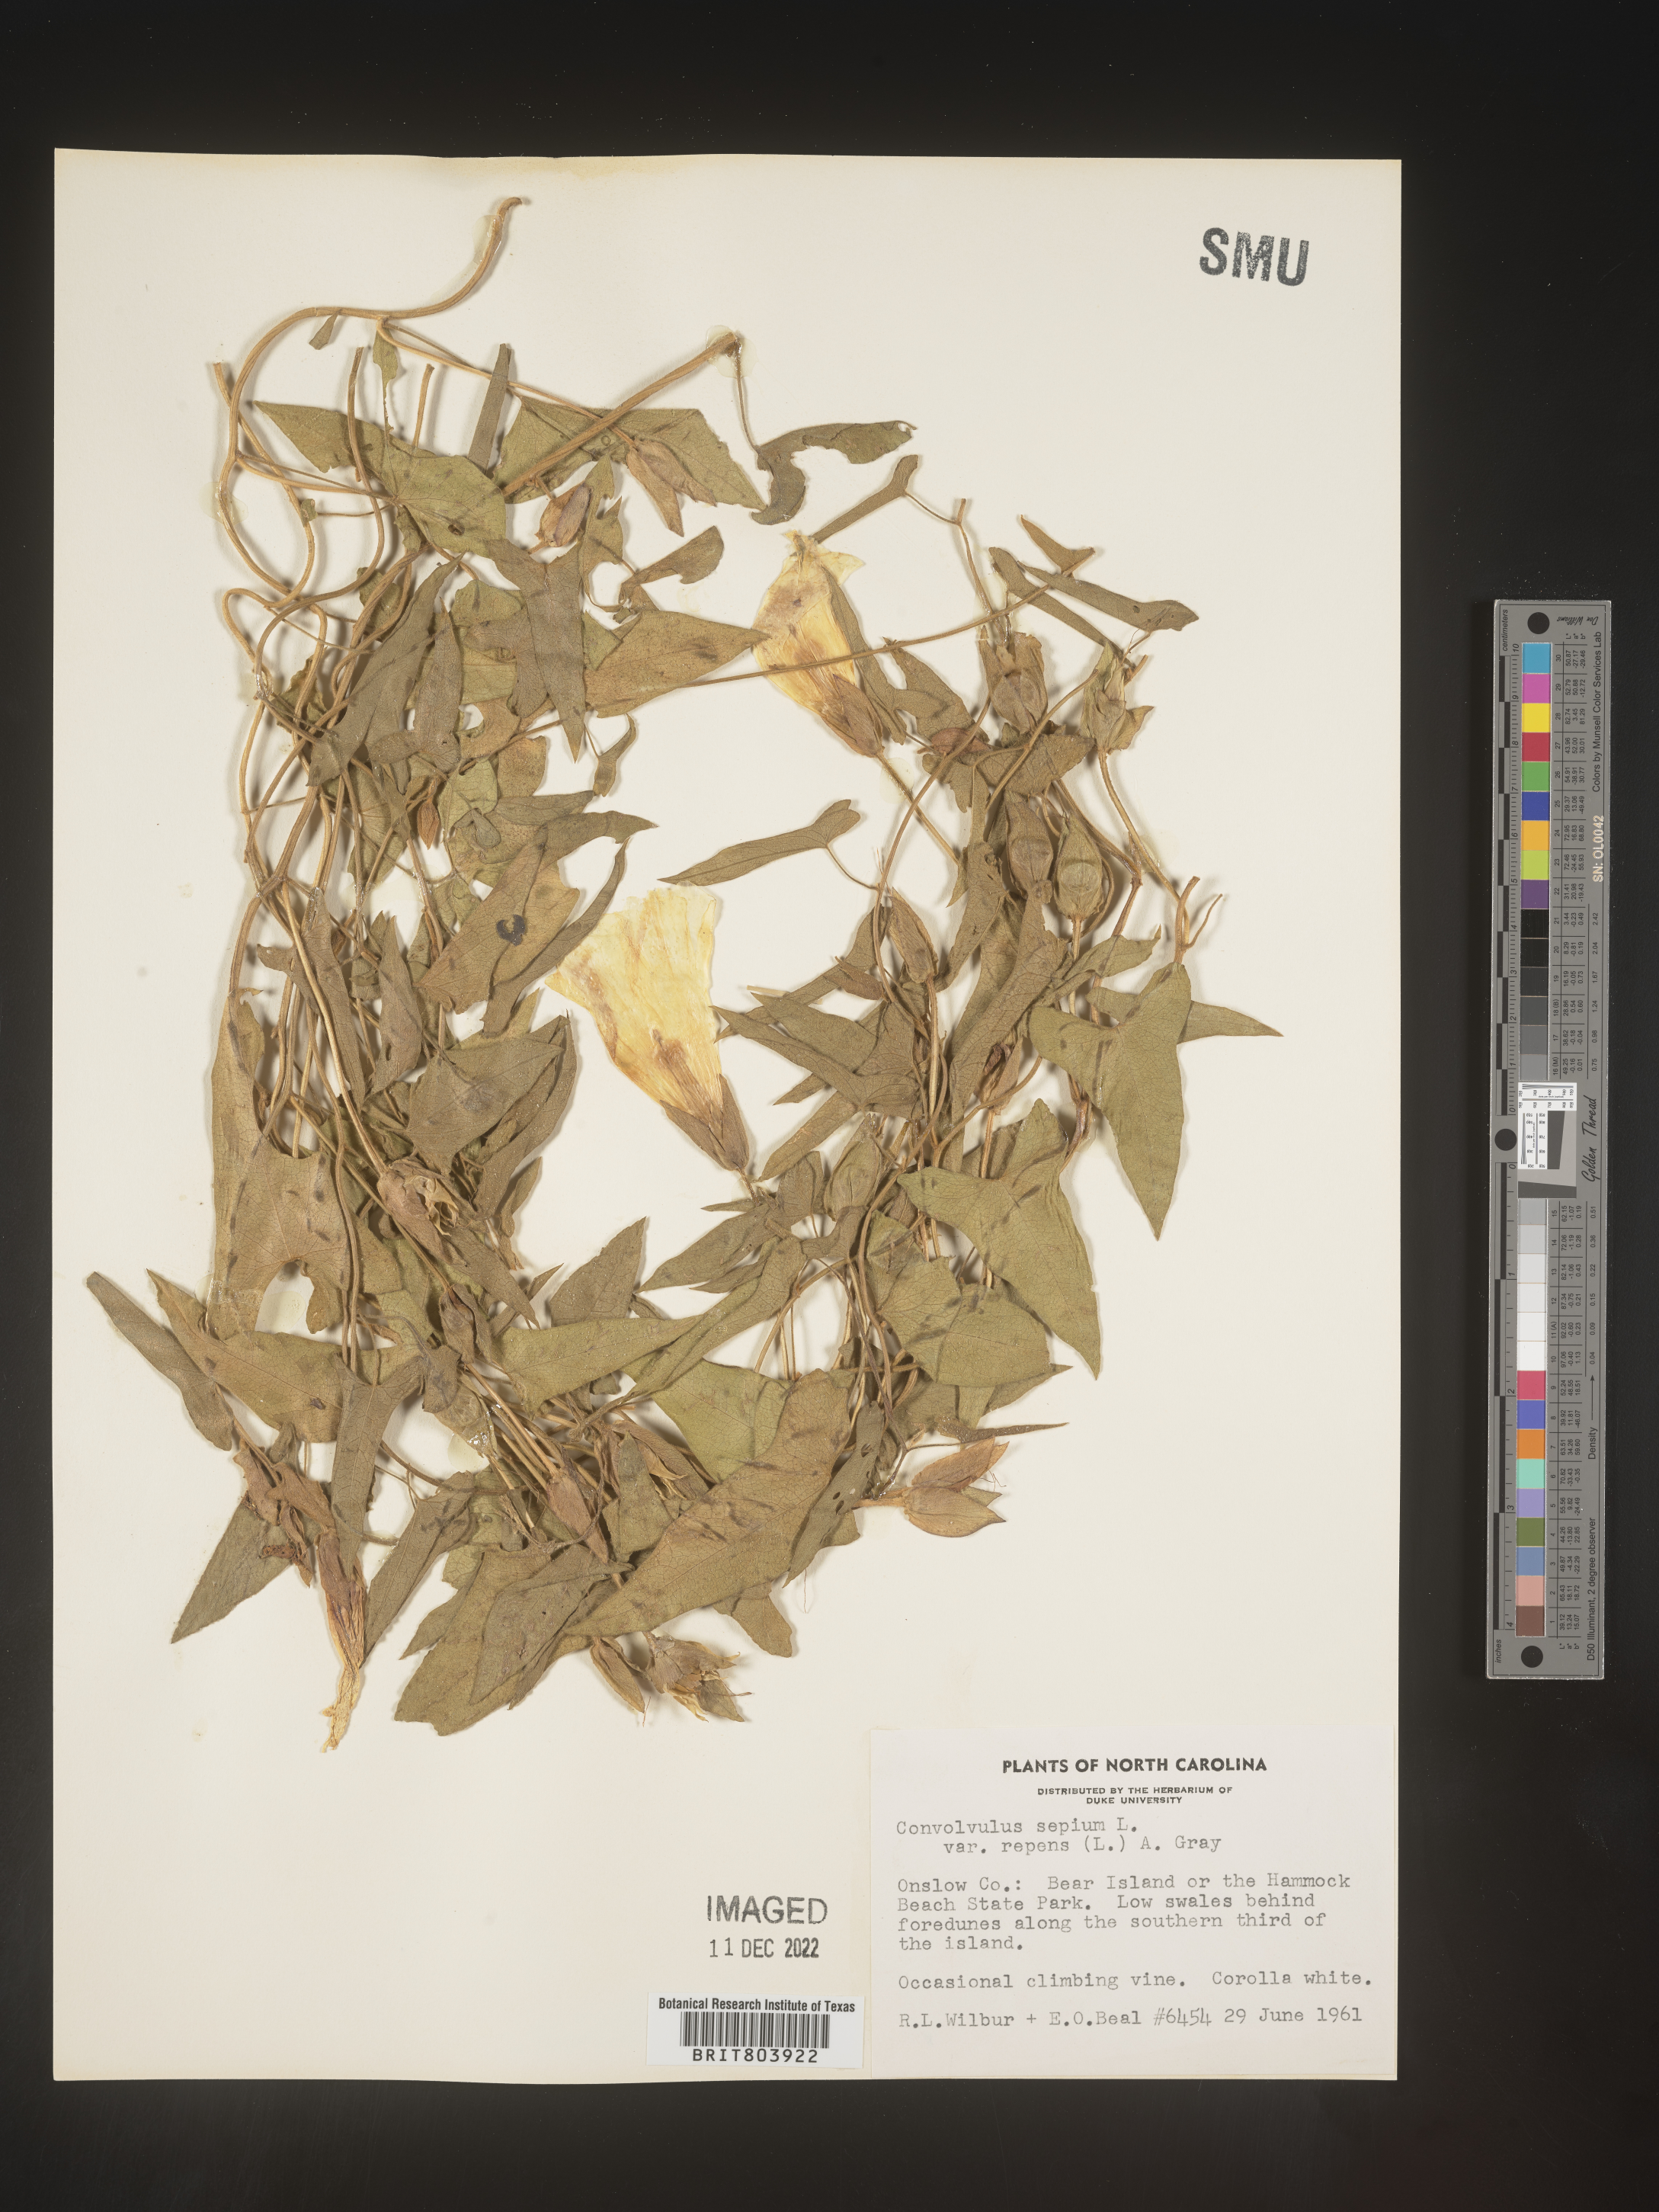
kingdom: Plantae
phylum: Tracheophyta
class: Magnoliopsida
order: Solanales
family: Convolvulaceae
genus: Calystegia
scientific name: Calystegia sepium
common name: Hedge bindweed
